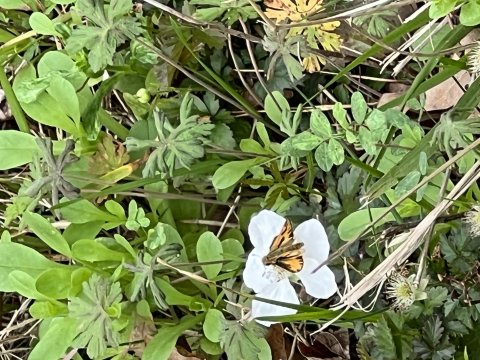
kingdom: Animalia
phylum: Arthropoda
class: Insecta
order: Lepidoptera
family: Hesperiidae
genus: Hylephila
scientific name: Hylephila phyleus
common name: Fiery Skipper
